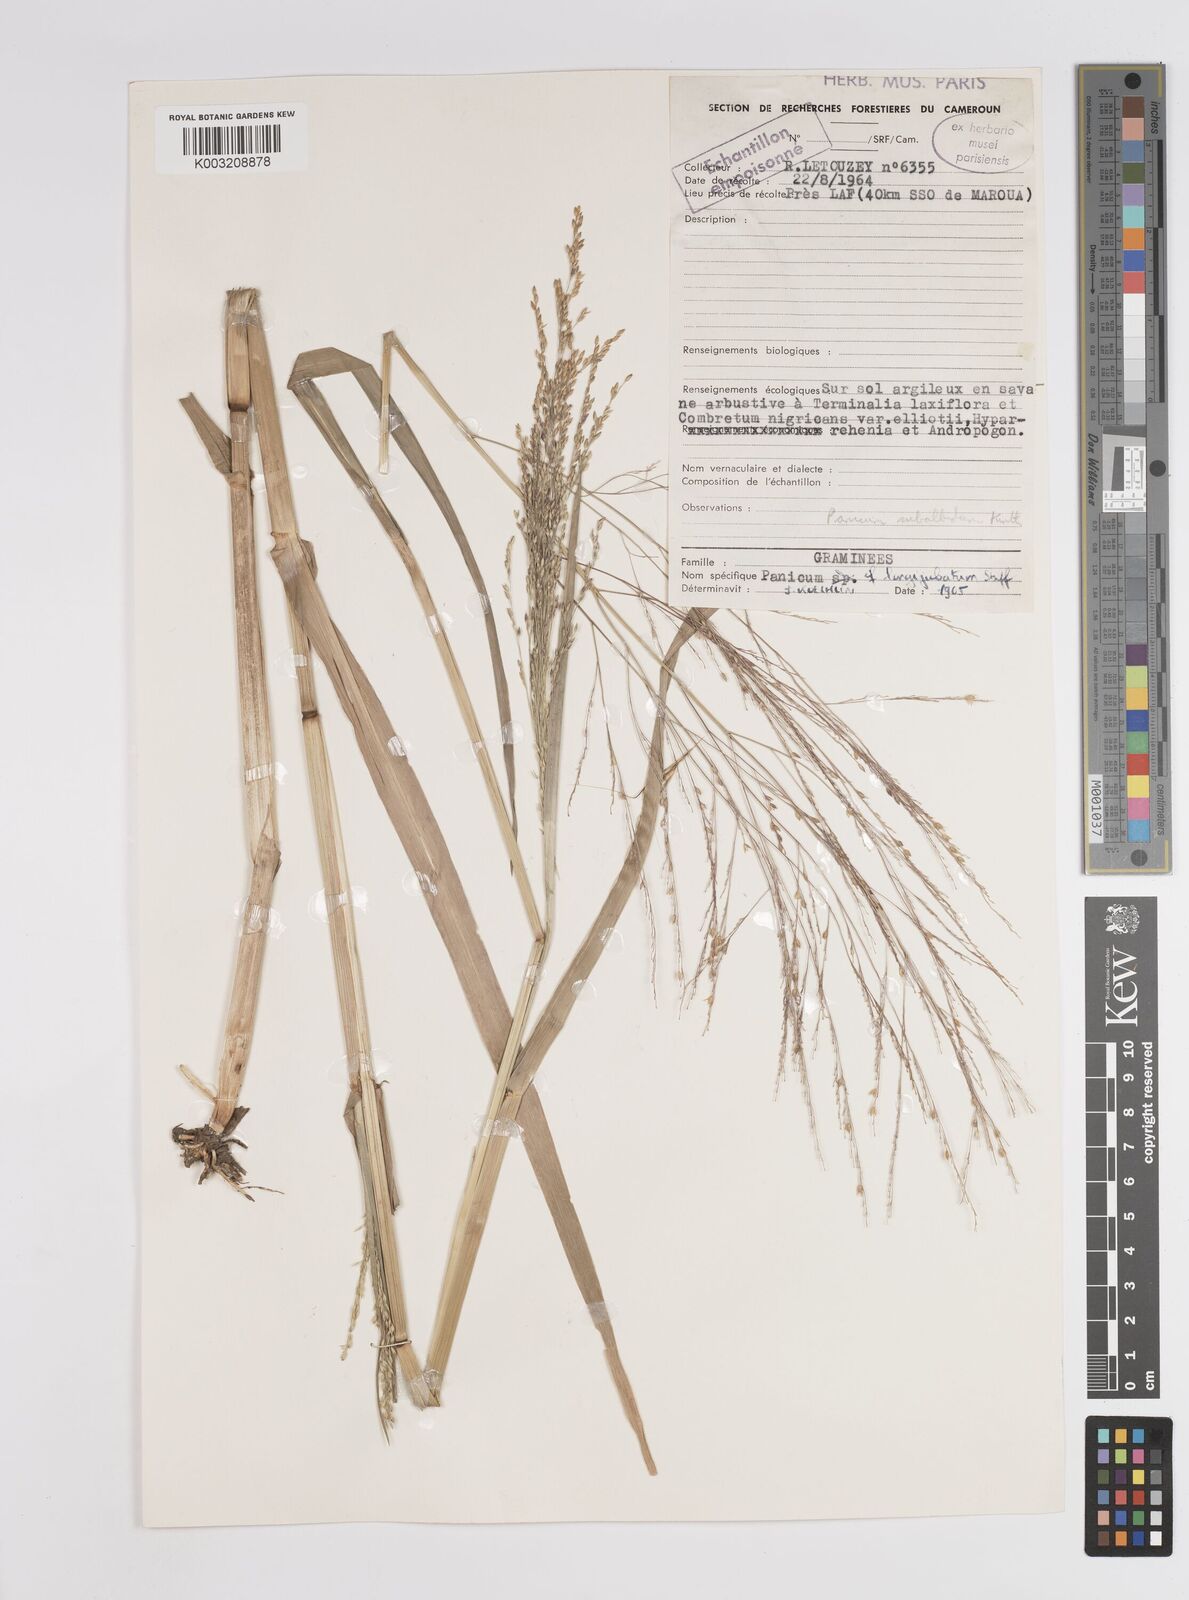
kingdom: Plantae
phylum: Tracheophyta
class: Liliopsida
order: Poales
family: Poaceae
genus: Panicum
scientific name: Panicum subalbidum
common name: Elbow buffalo grass
